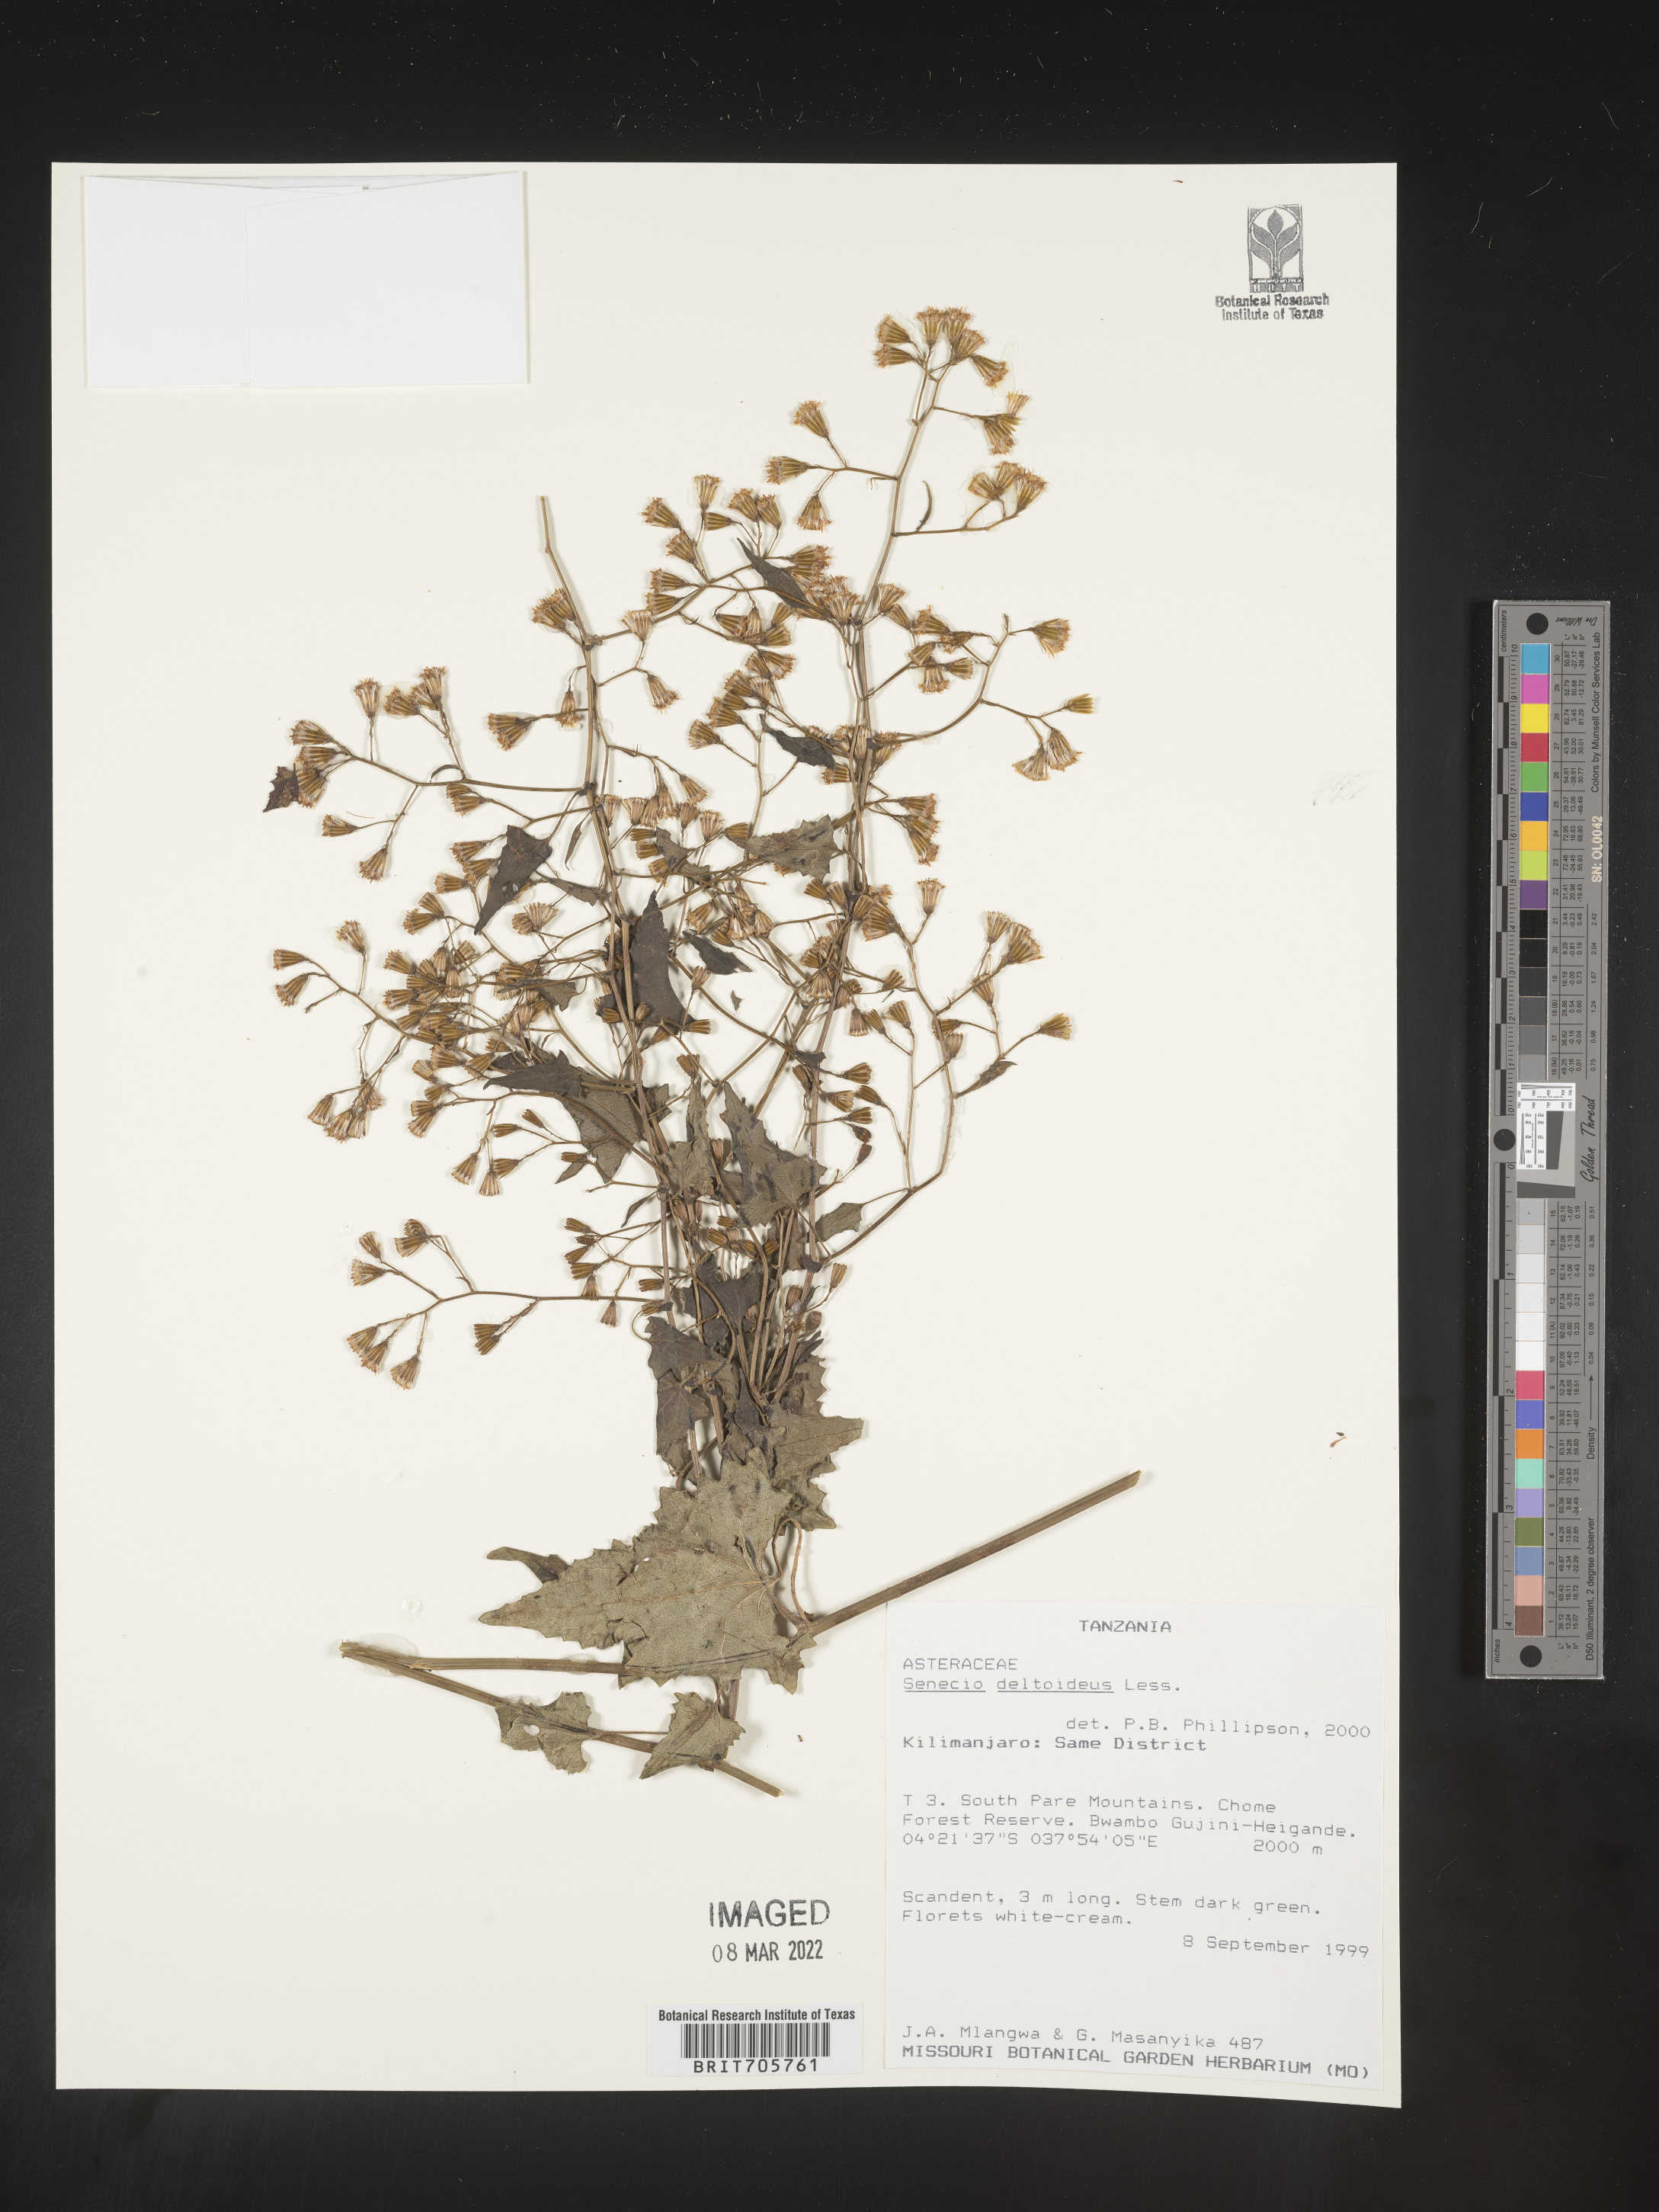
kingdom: Plantae
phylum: Tracheophyta
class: Magnoliopsida
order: Asterales
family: Asteraceae
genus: Senecio
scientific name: Senecio
